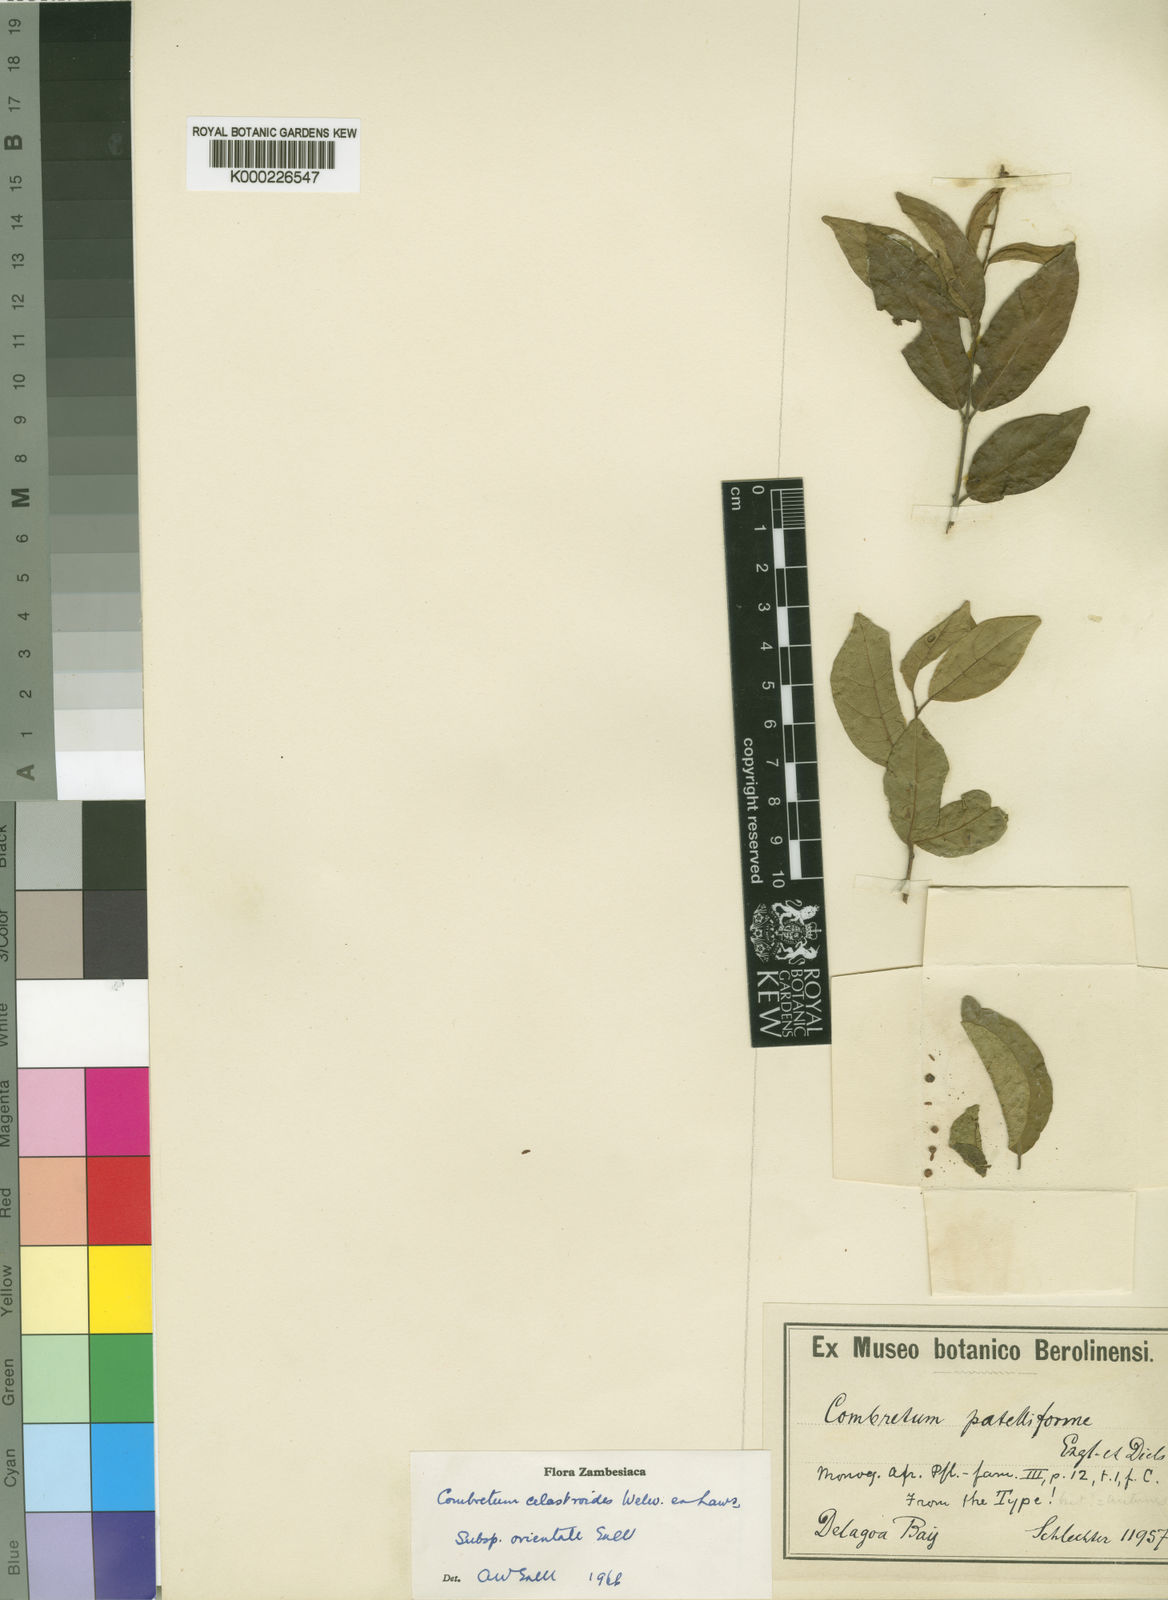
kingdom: Plantae
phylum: Tracheophyta
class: Magnoliopsida
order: Myrtales
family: Combretaceae
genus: Combretum
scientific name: Combretum celastroides
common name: Jesse-bush combretum
